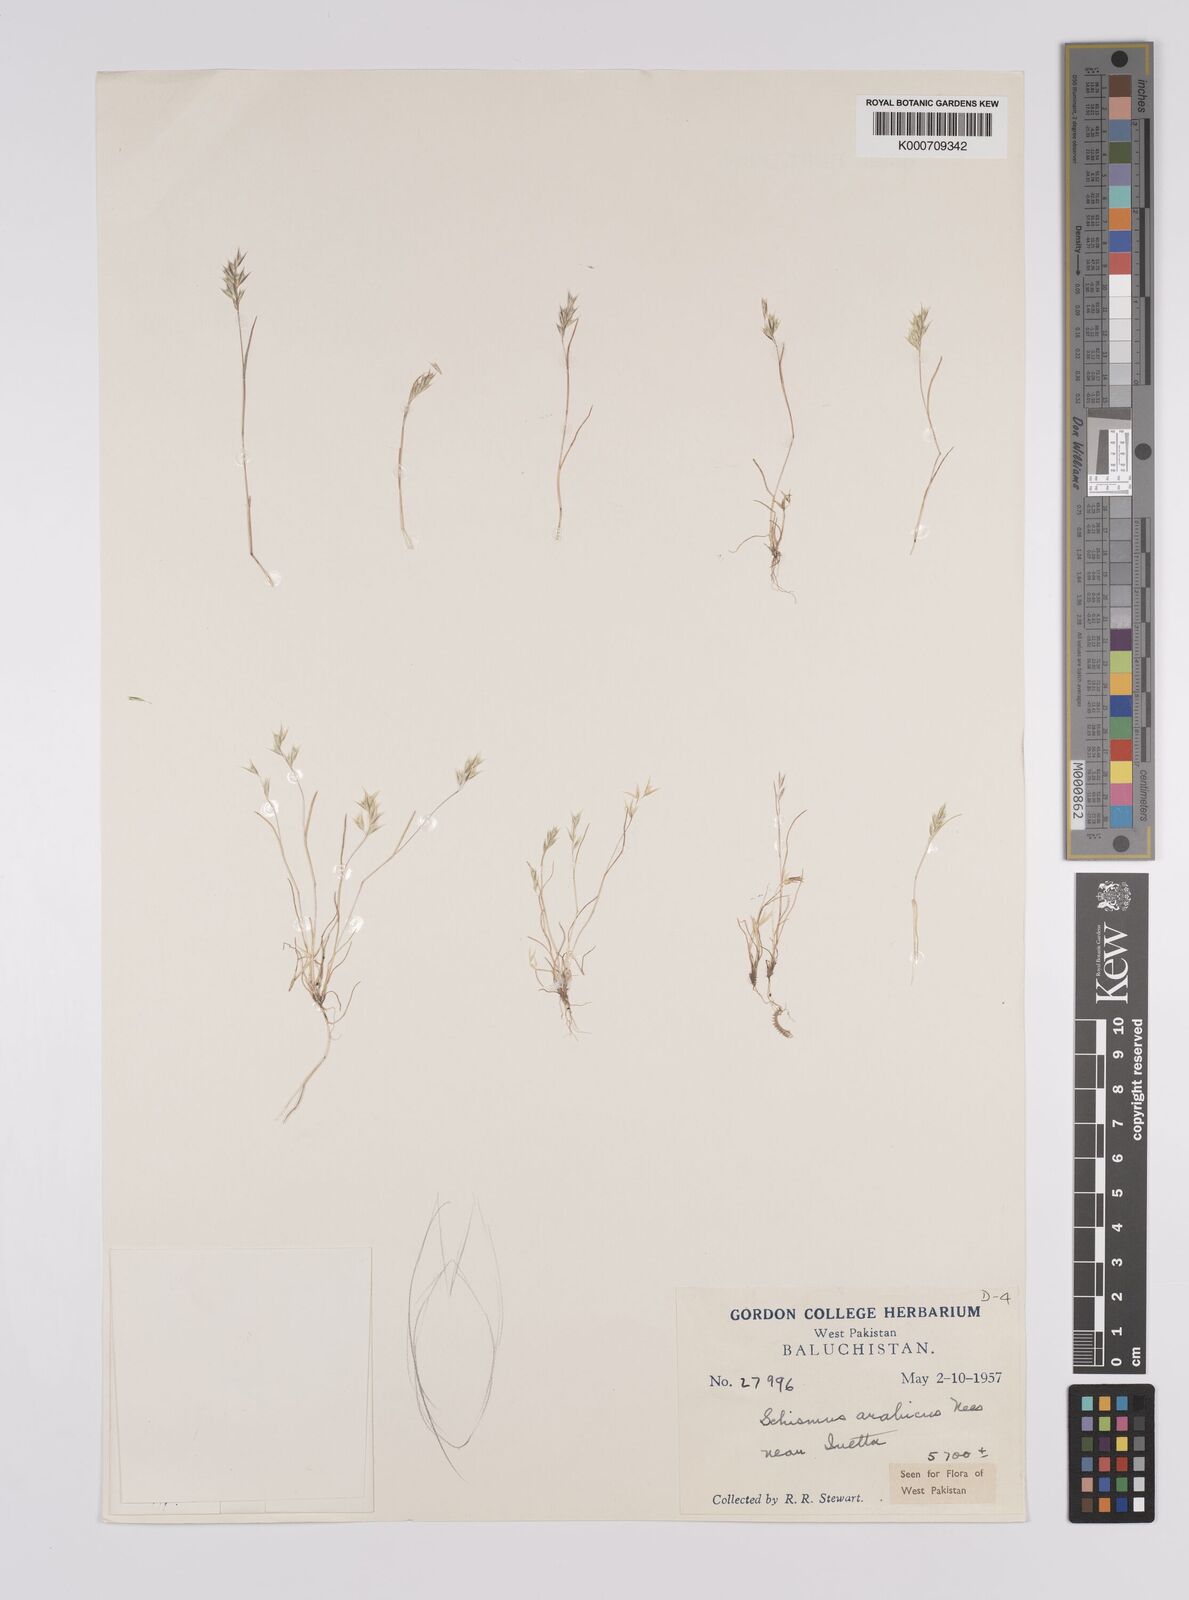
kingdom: Plantae
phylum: Tracheophyta
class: Liliopsida
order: Poales
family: Poaceae
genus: Schismus
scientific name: Schismus arabicus
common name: Arabian schismus
